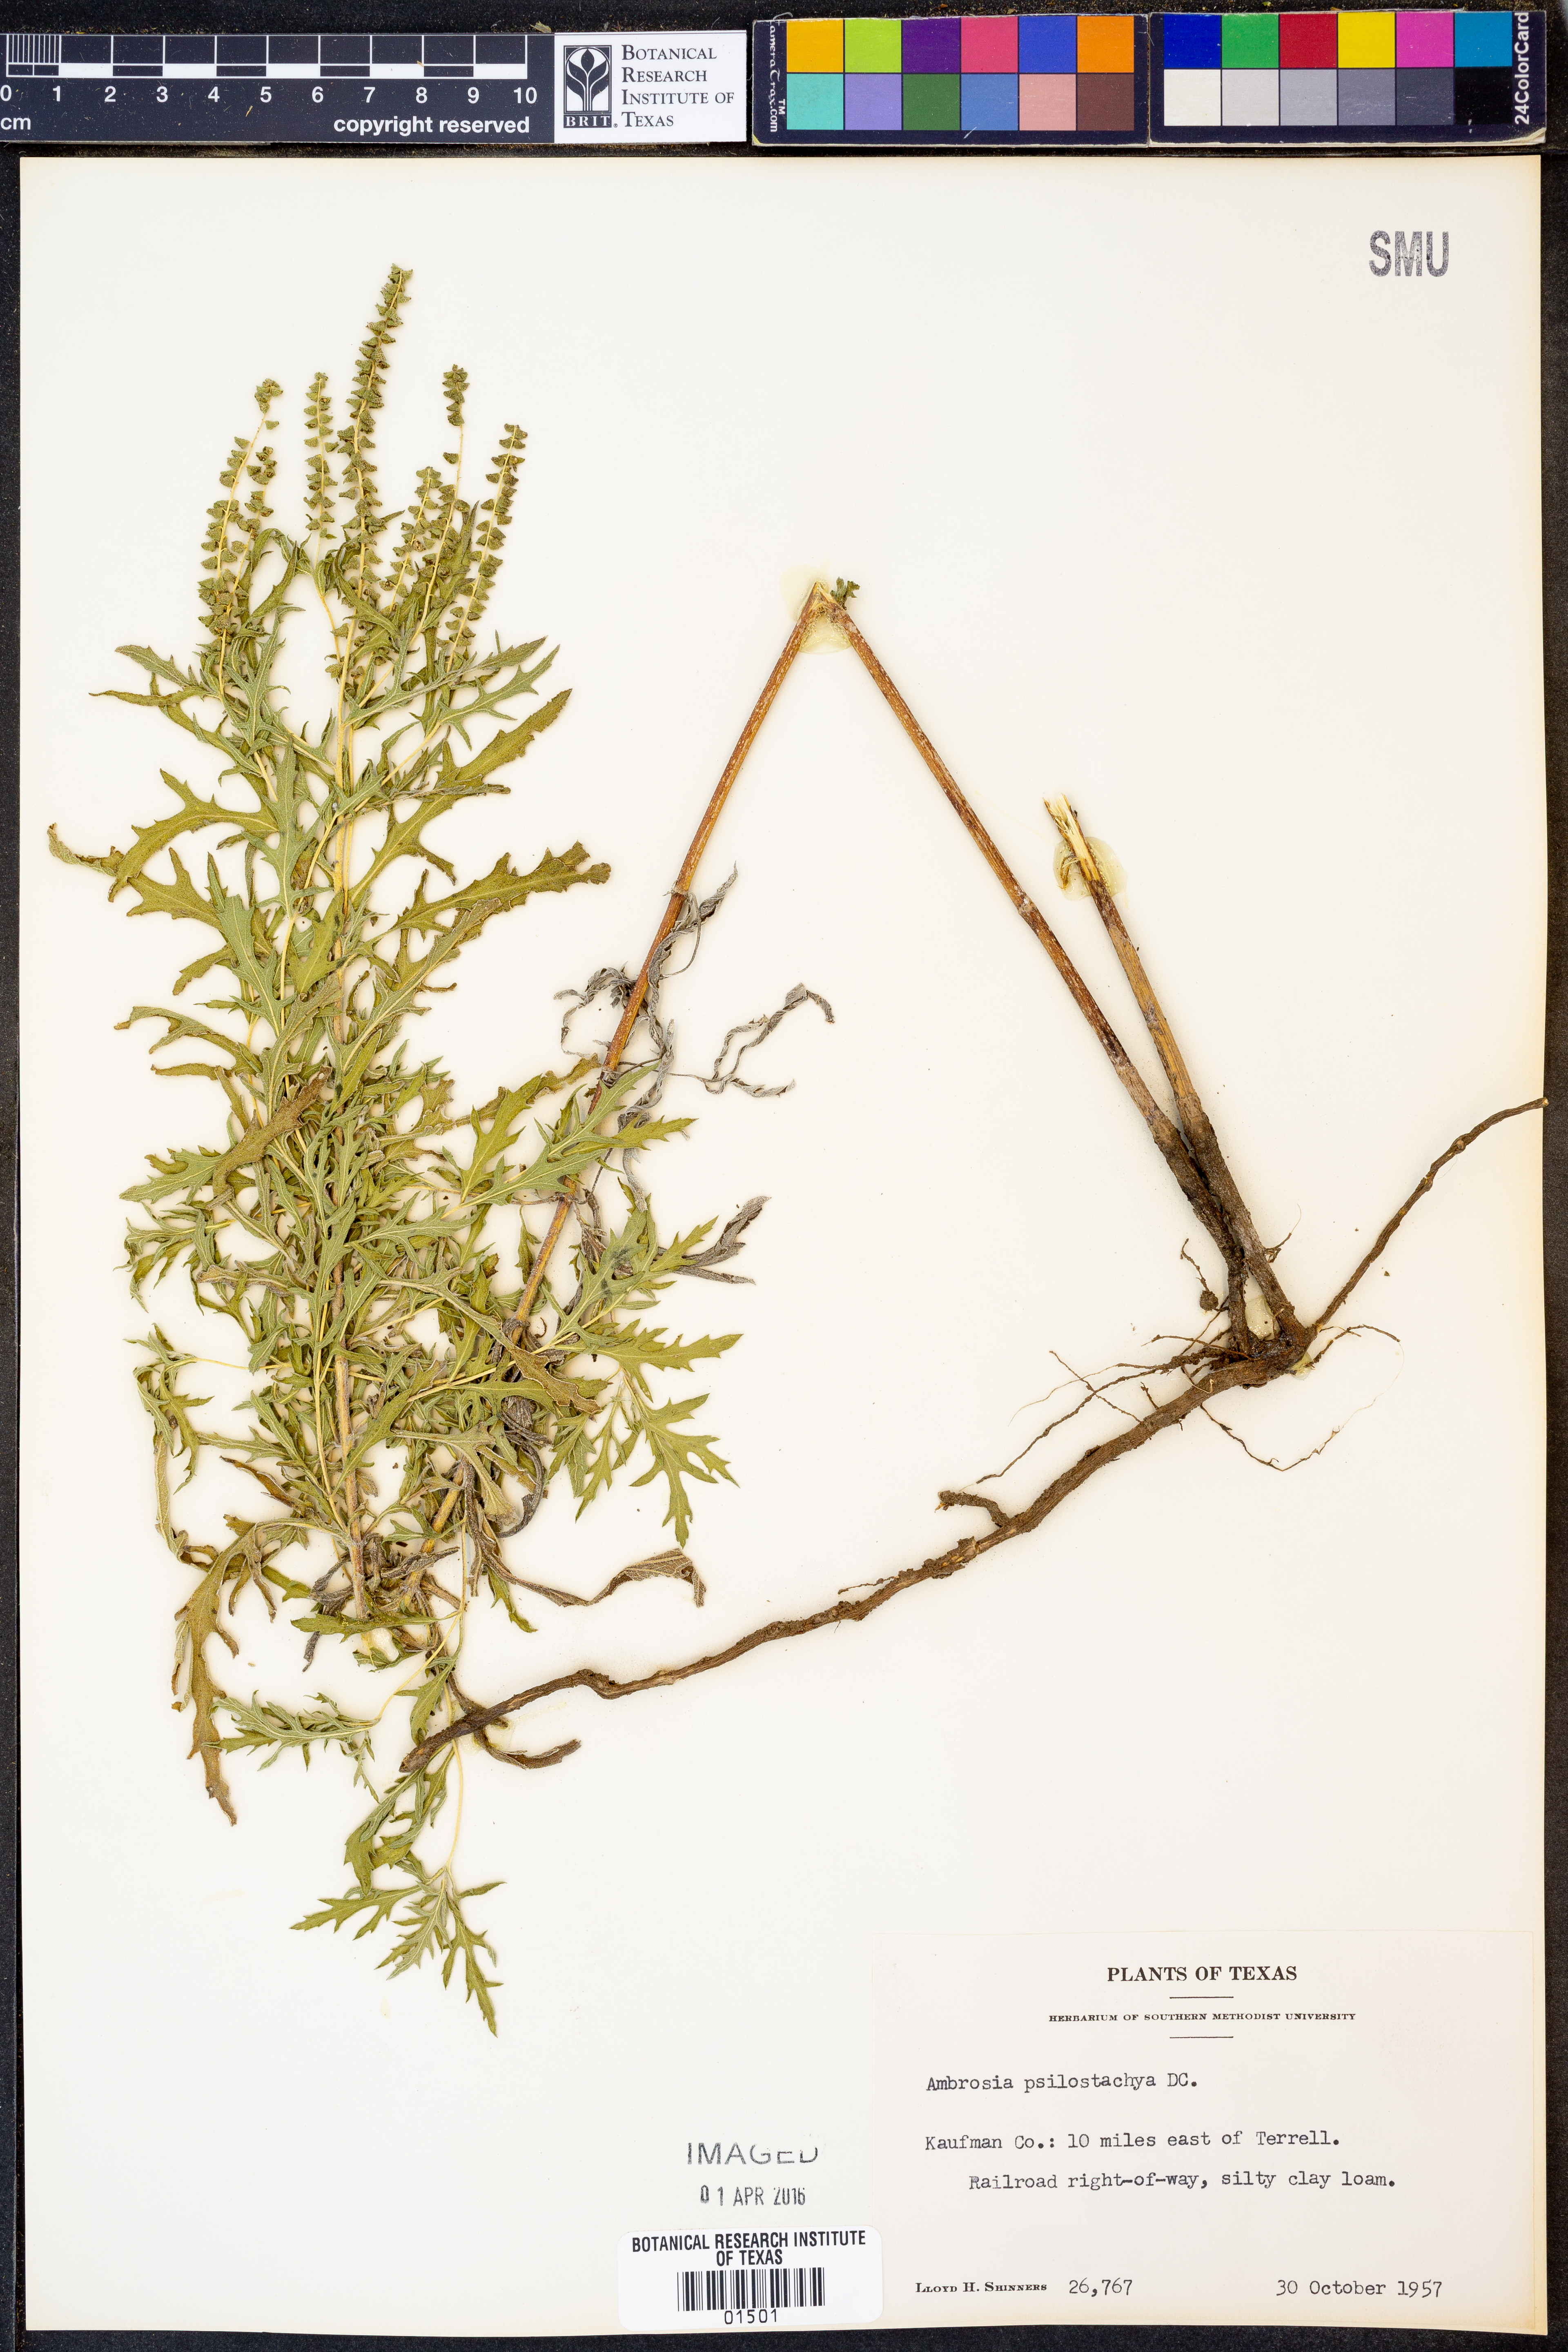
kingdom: Plantae
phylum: Tracheophyta
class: Magnoliopsida
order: Asterales
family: Asteraceae
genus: Ambrosia
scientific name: Ambrosia psilostachya
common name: Perennial ragweed
